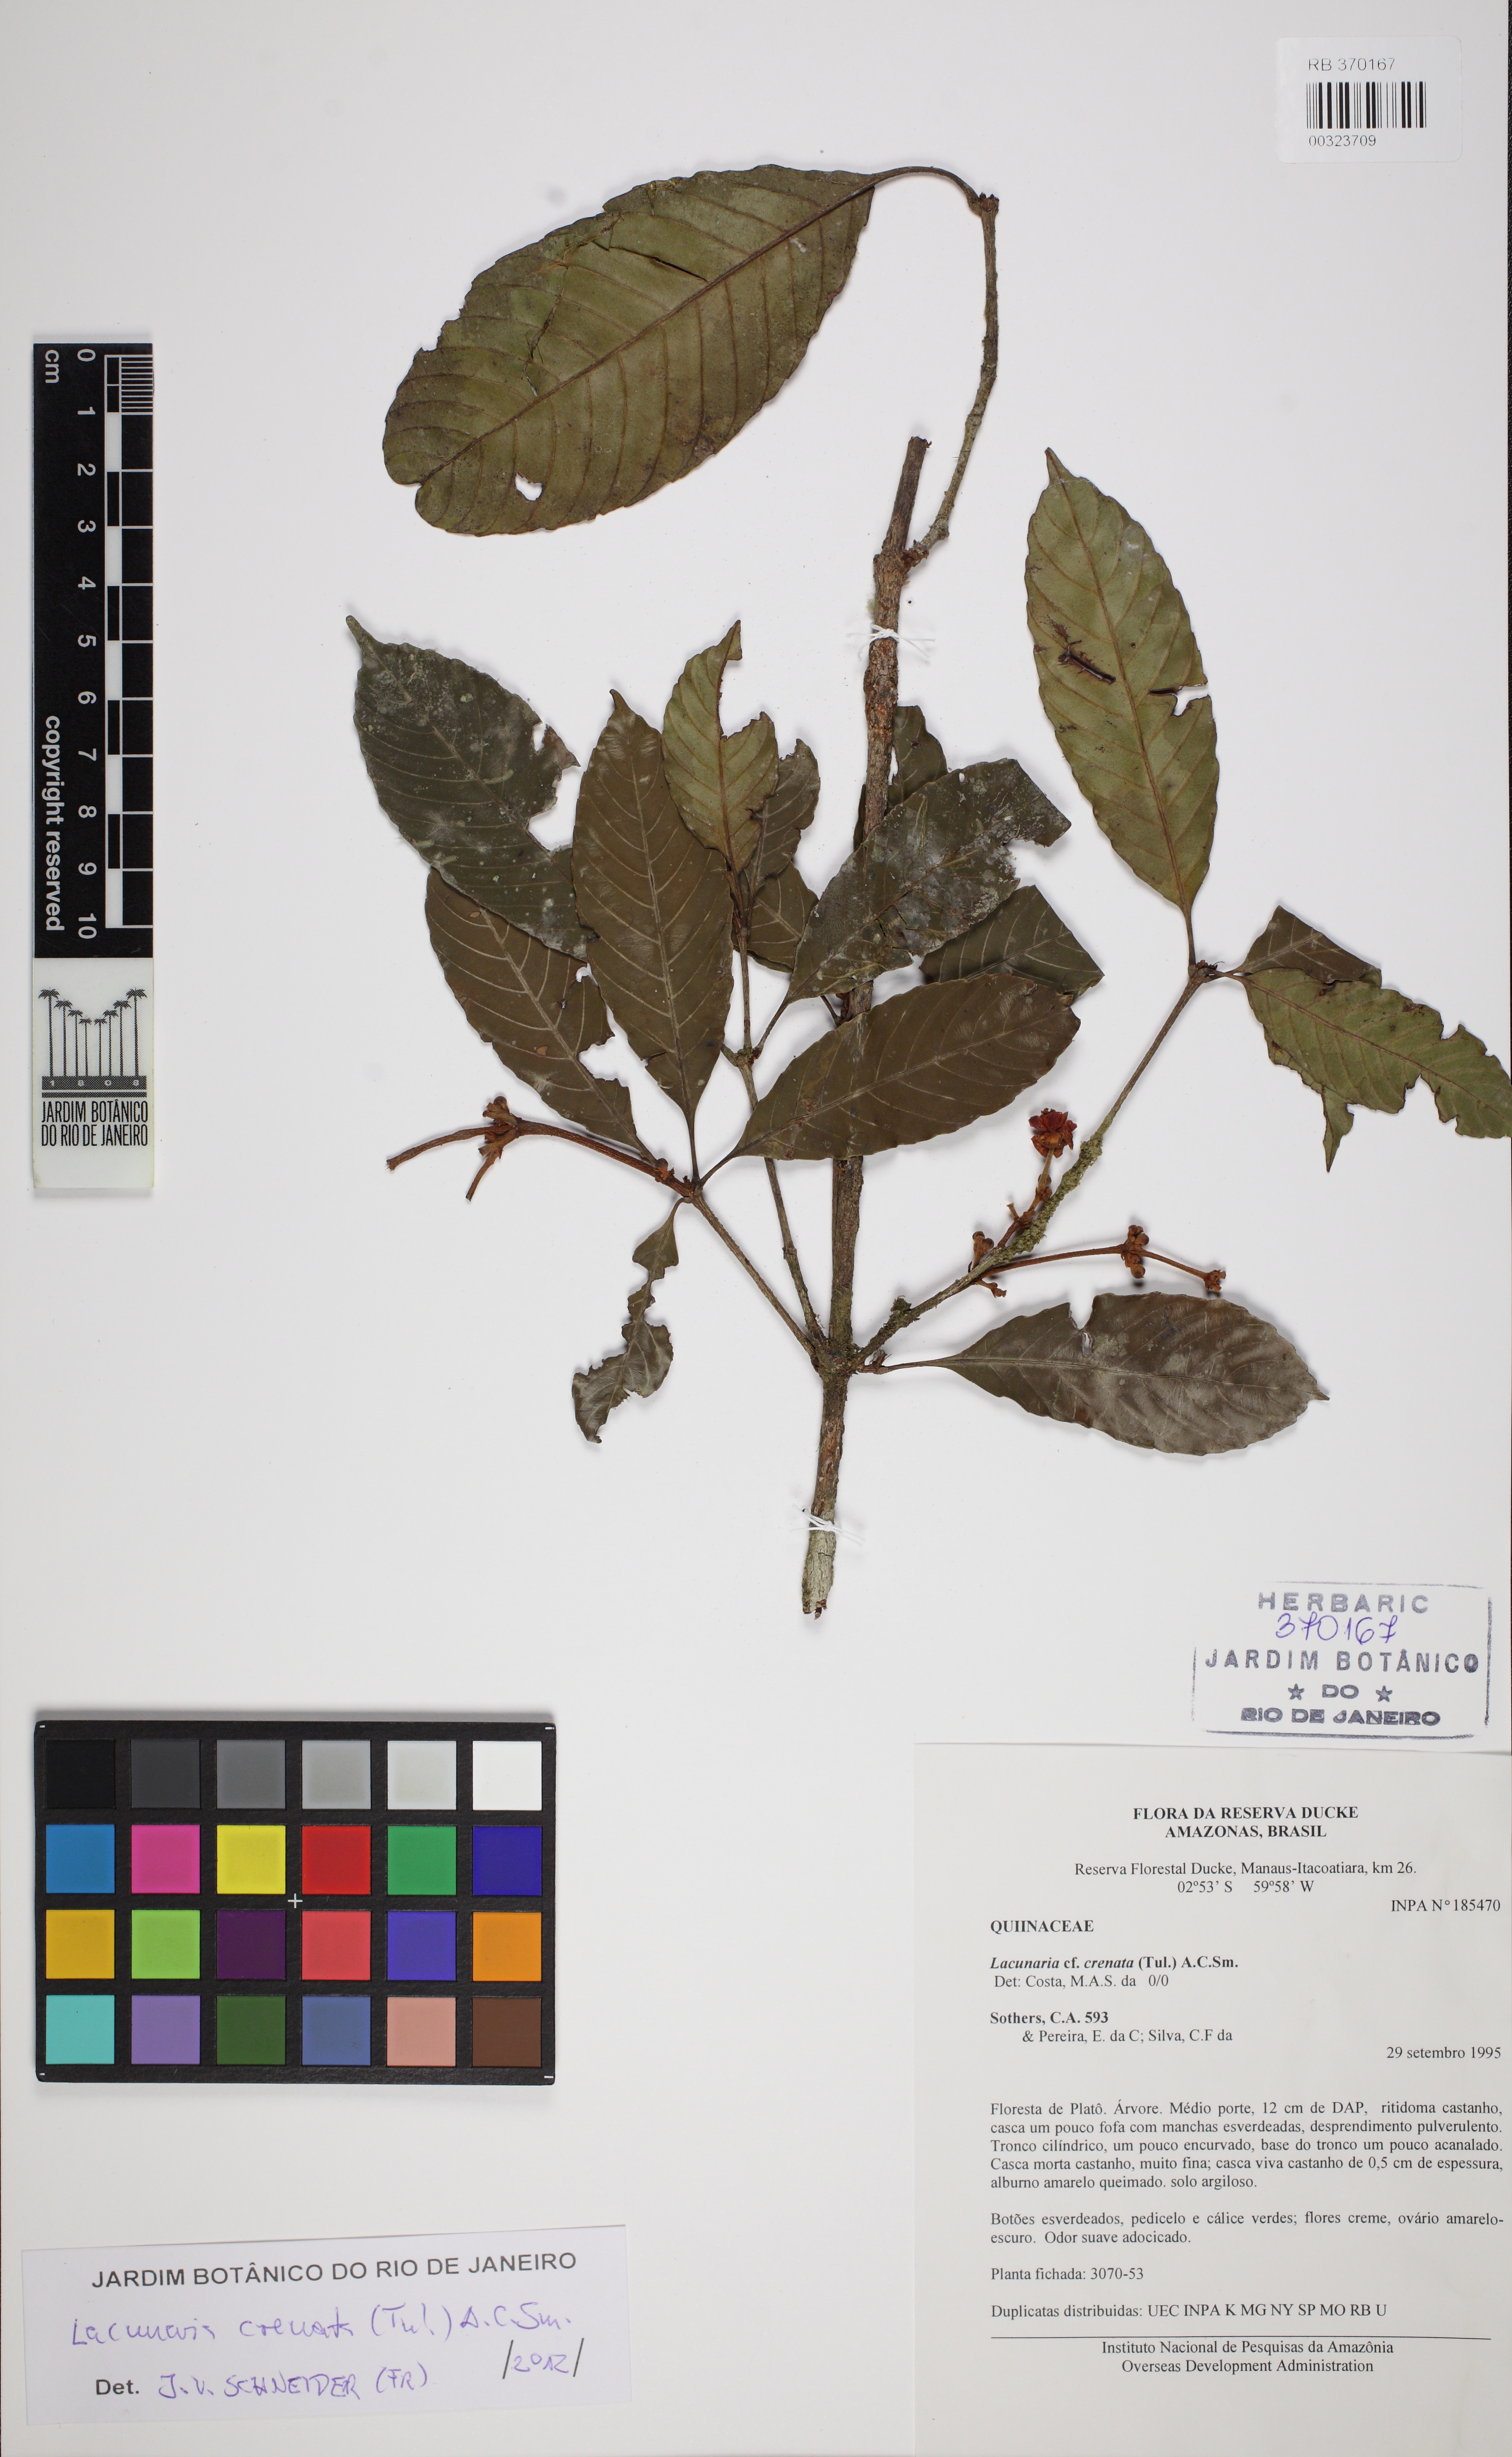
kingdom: Plantae
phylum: Tracheophyta
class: Magnoliopsida
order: Malpighiales
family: Quiinaceae
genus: Lacunaria
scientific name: Lacunaria crenata
